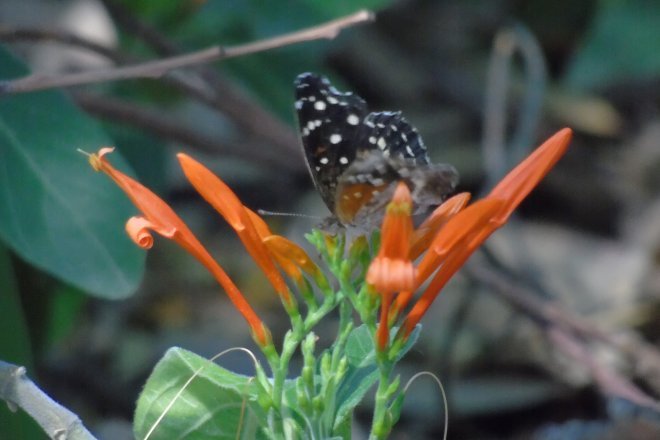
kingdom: Animalia
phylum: Arthropoda
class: Insecta
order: Lepidoptera
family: Nymphalidae
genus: Anthanassa
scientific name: Anthanassa texana
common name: Texan Crescent
